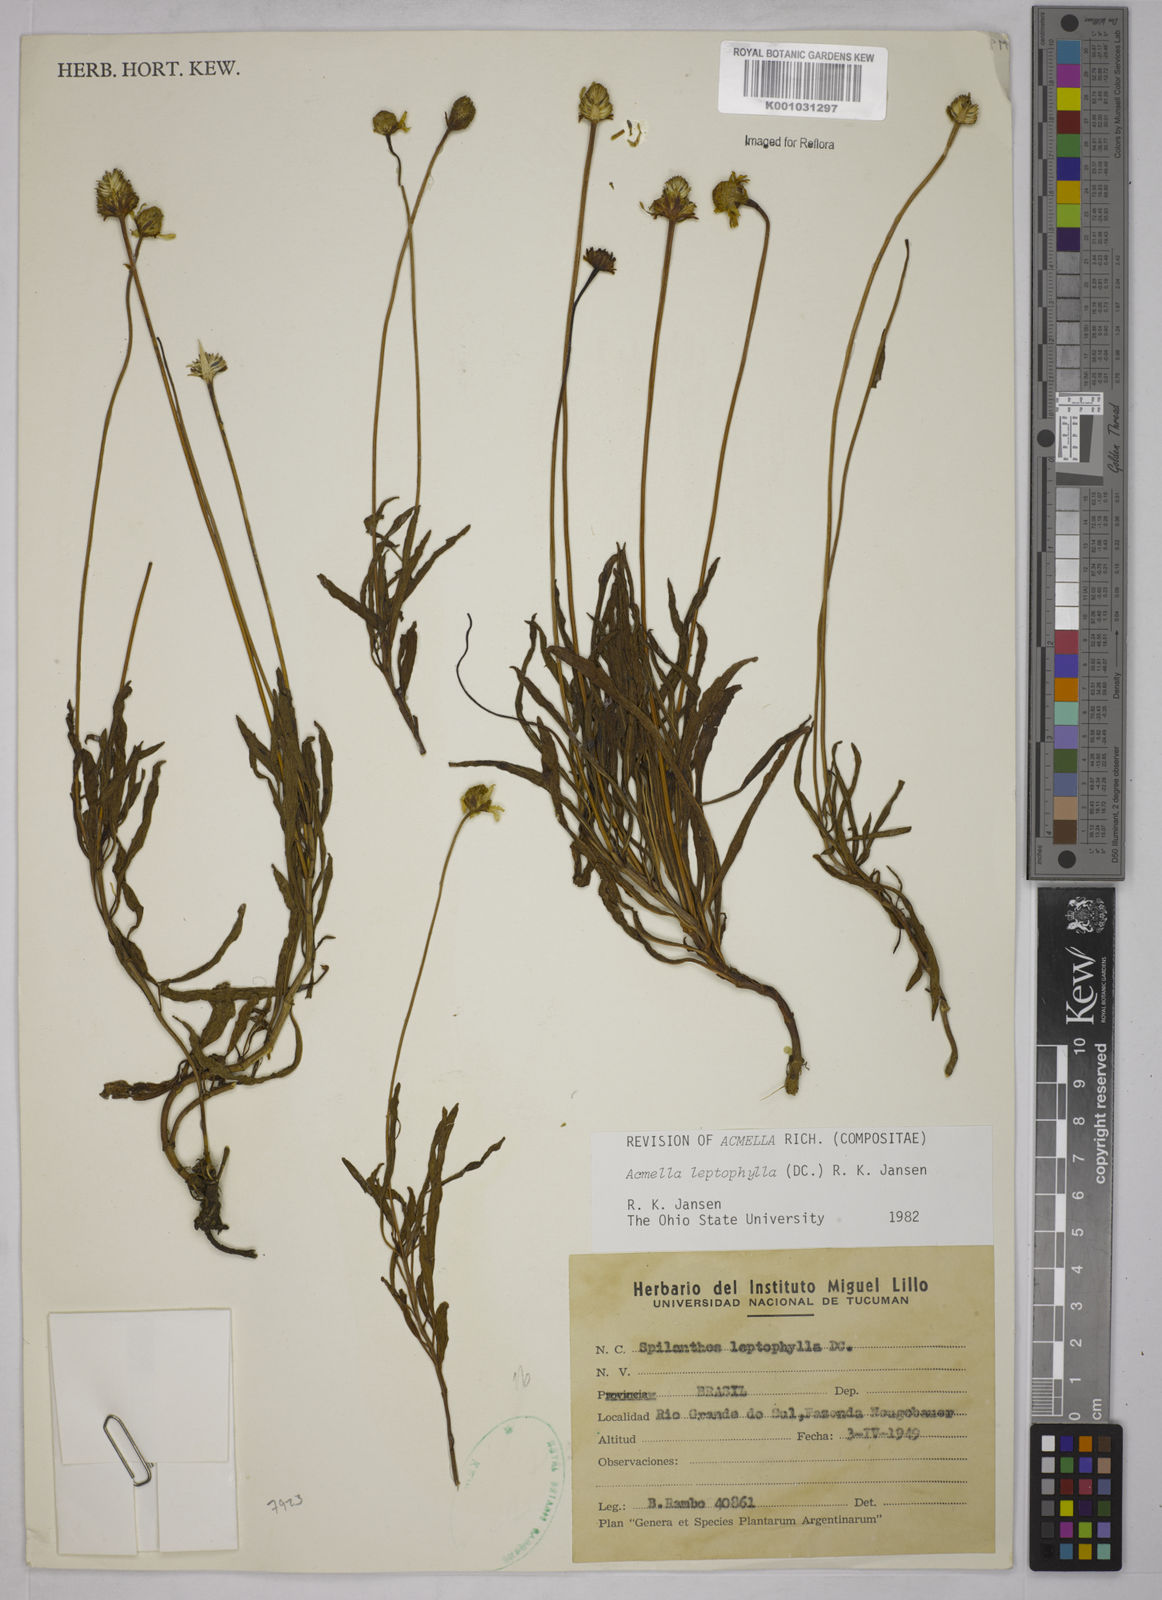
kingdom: Plantae
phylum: Tracheophyta
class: Magnoliopsida
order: Asterales
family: Asteraceae
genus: Acmella
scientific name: Acmella leptophylla
